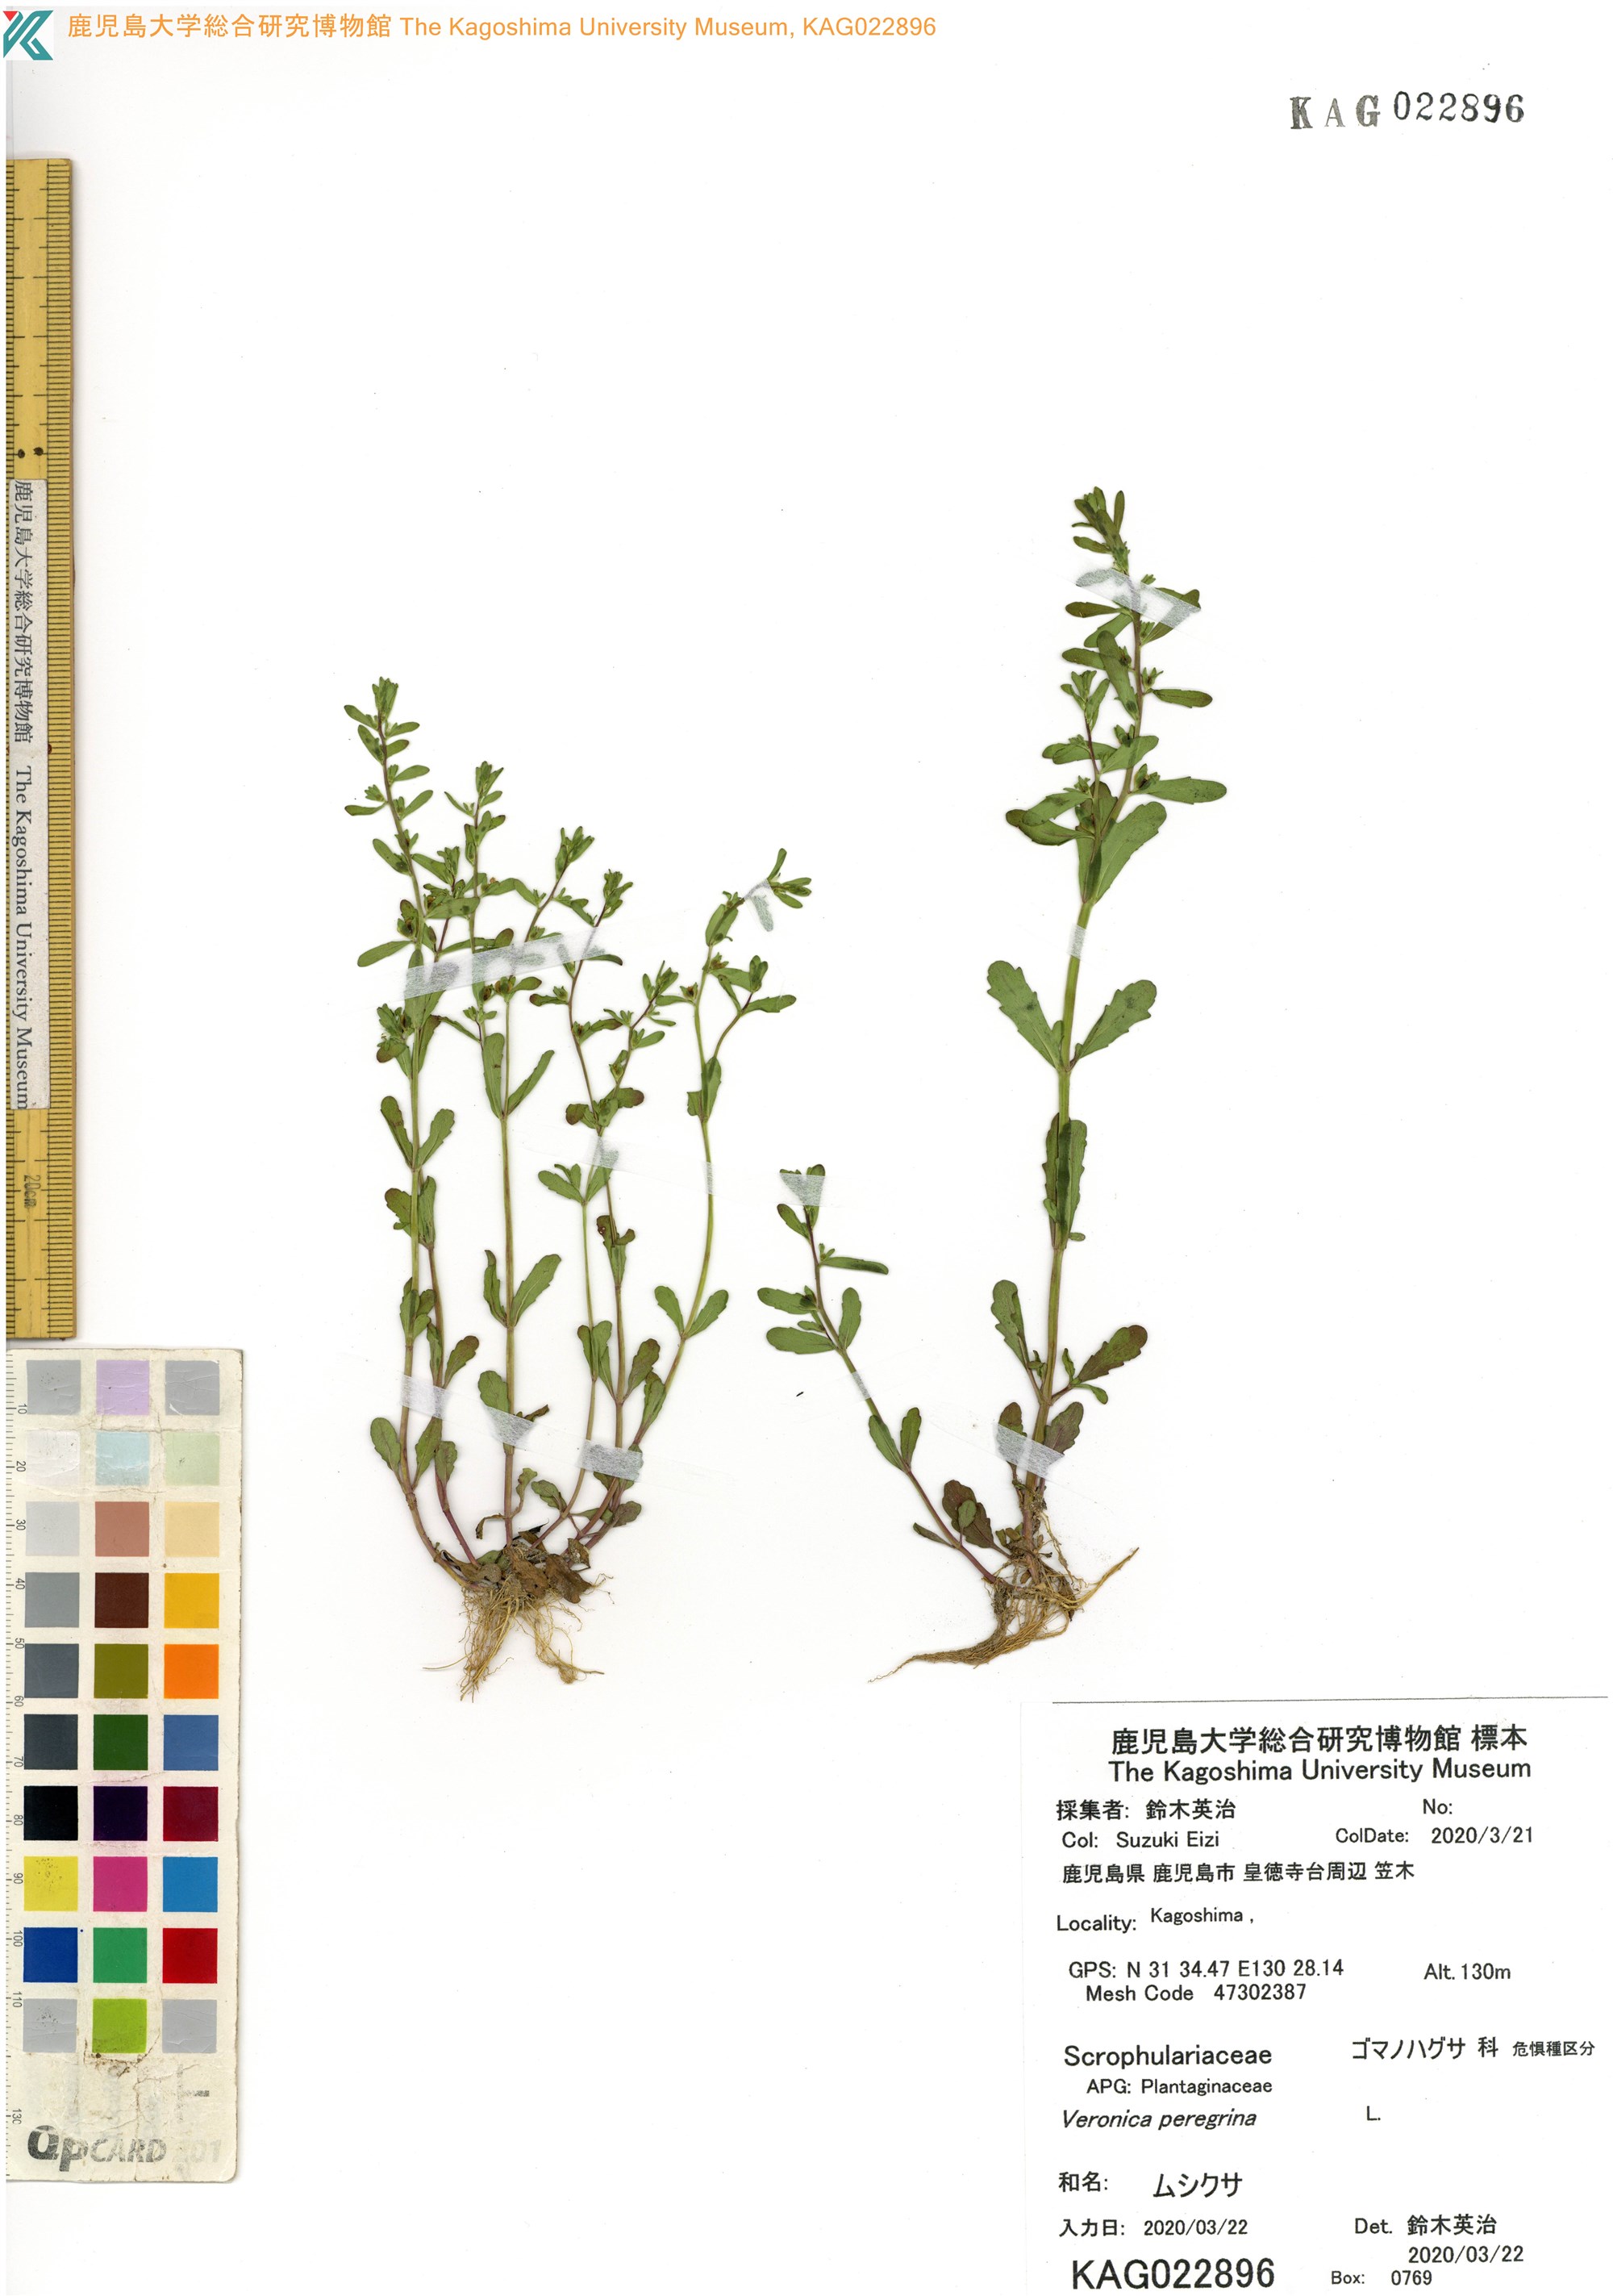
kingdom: Plantae
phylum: Tracheophyta
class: Magnoliopsida
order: Lamiales
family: Plantaginaceae
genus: Veronica
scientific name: Veronica peregrina
